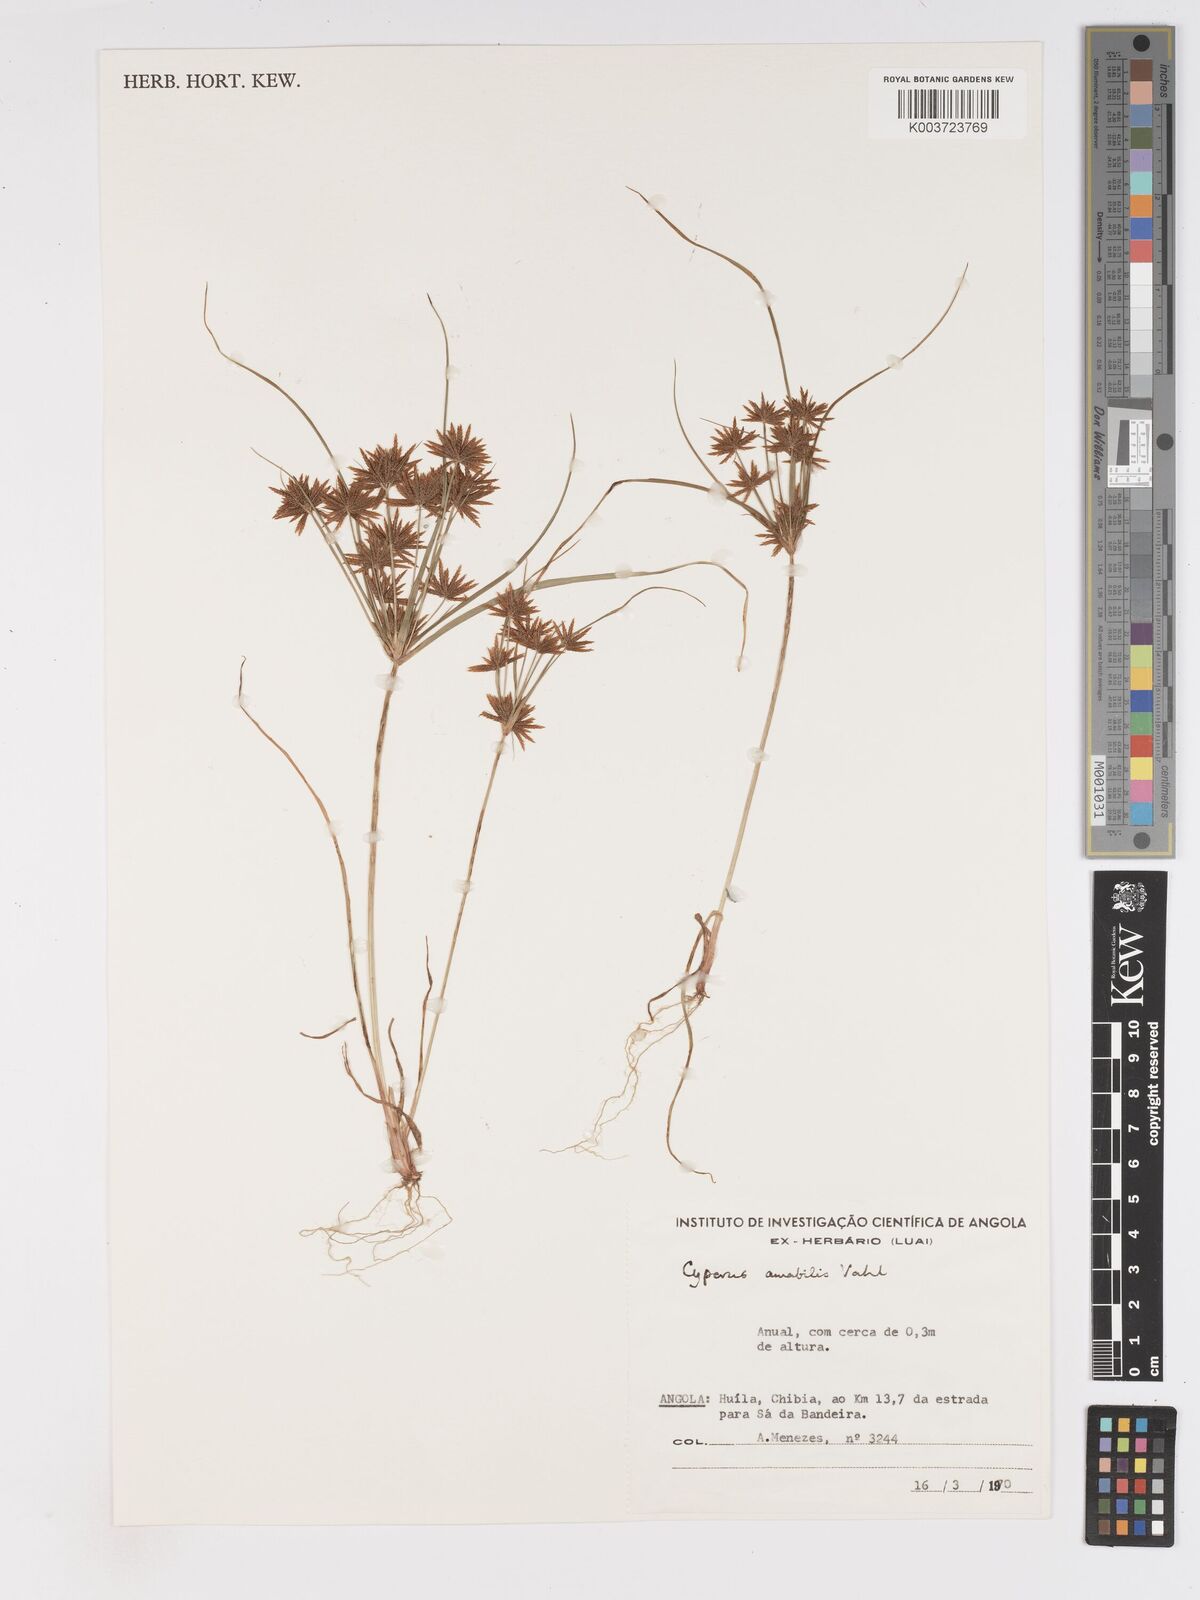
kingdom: Plantae
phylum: Tracheophyta
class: Liliopsida
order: Poales
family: Cyperaceae
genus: Cyperus
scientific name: Cyperus amabilis
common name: Foothill flat sedge
